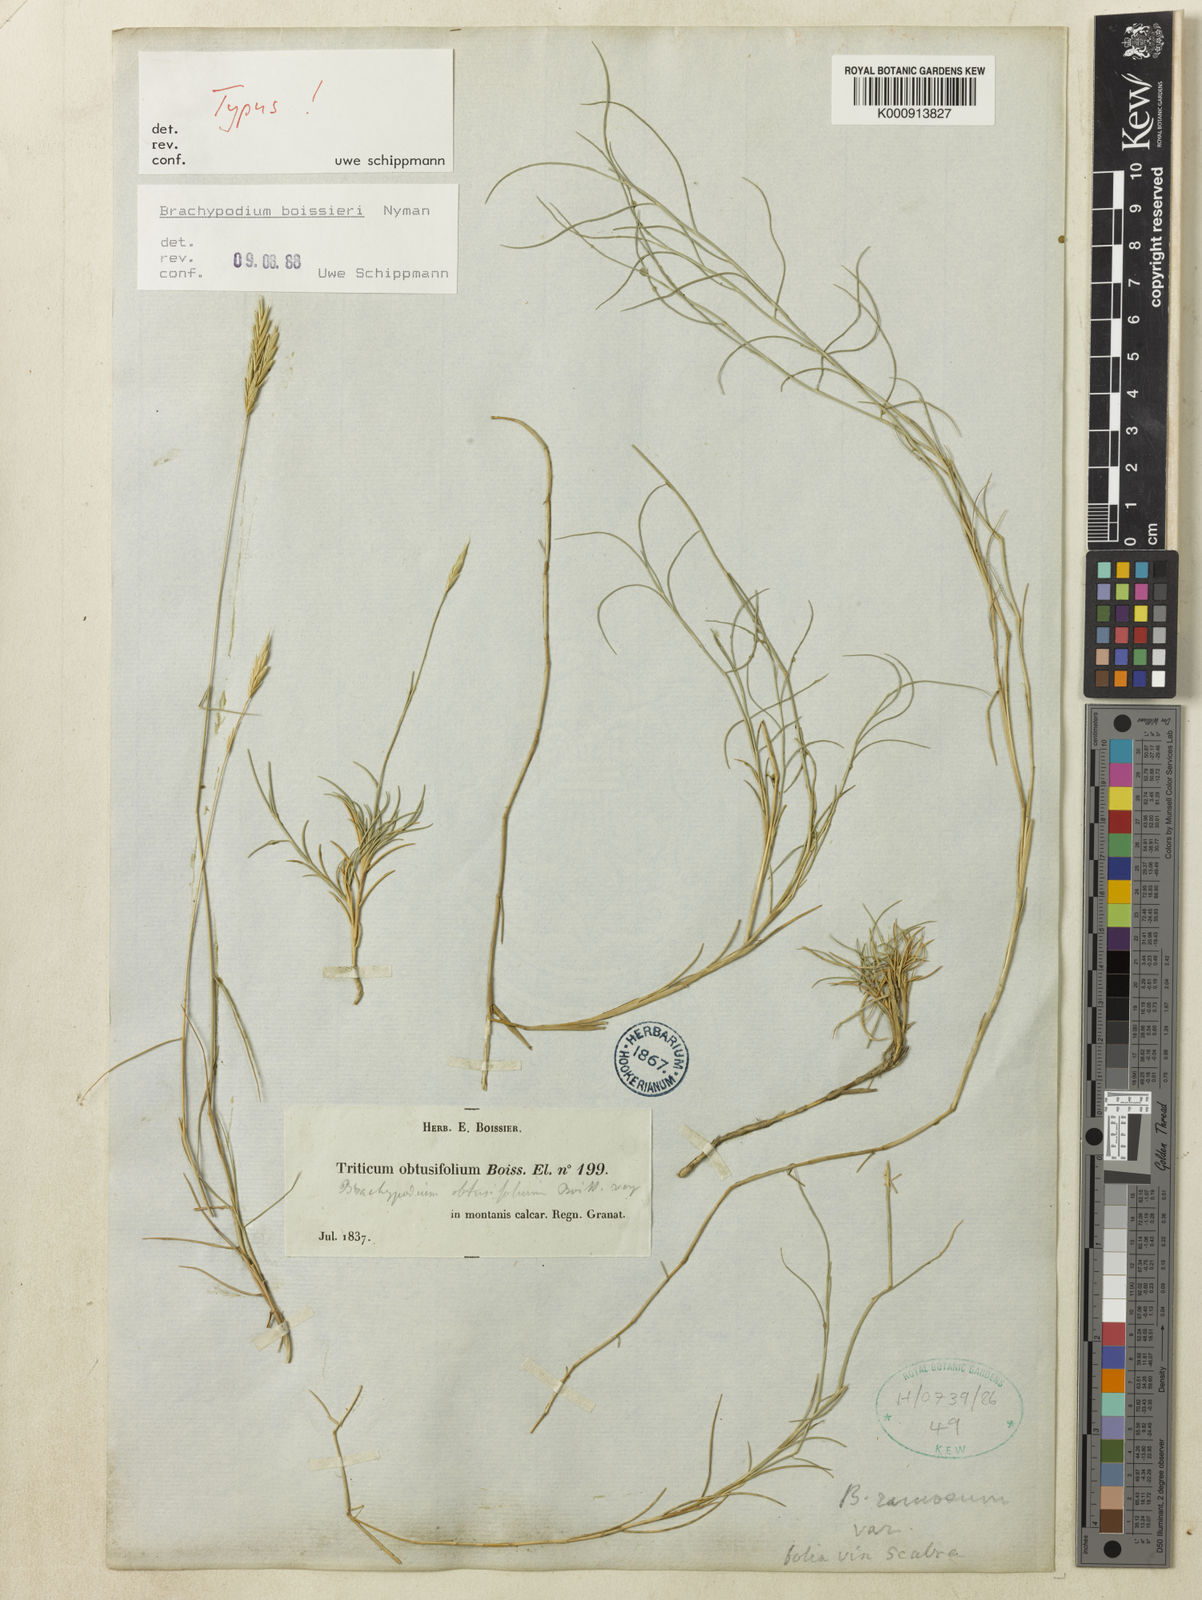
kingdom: Plantae
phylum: Tracheophyta
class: Liliopsida
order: Poales
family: Poaceae
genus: Brachypodium
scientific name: Brachypodium retusum
